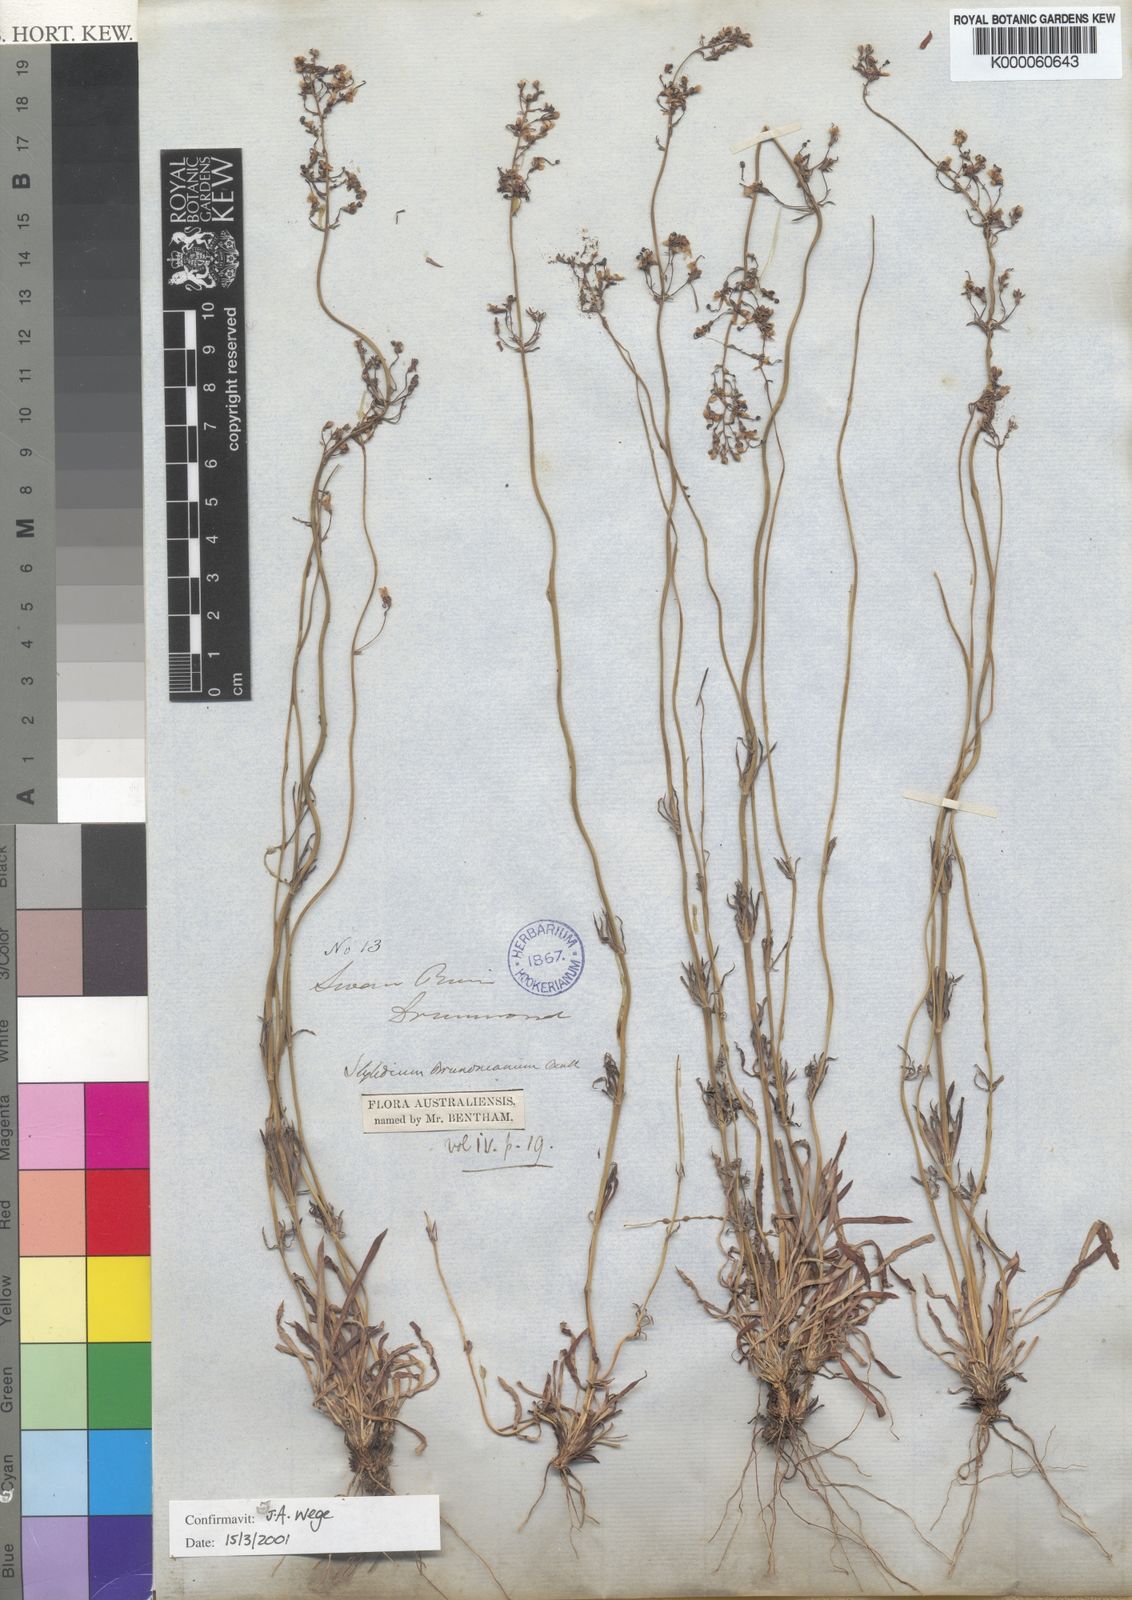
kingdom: Plantae
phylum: Tracheophyta
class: Magnoliopsida
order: Asterales
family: Stylidiaceae
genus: Stylidium
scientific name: Stylidium brunonianum
